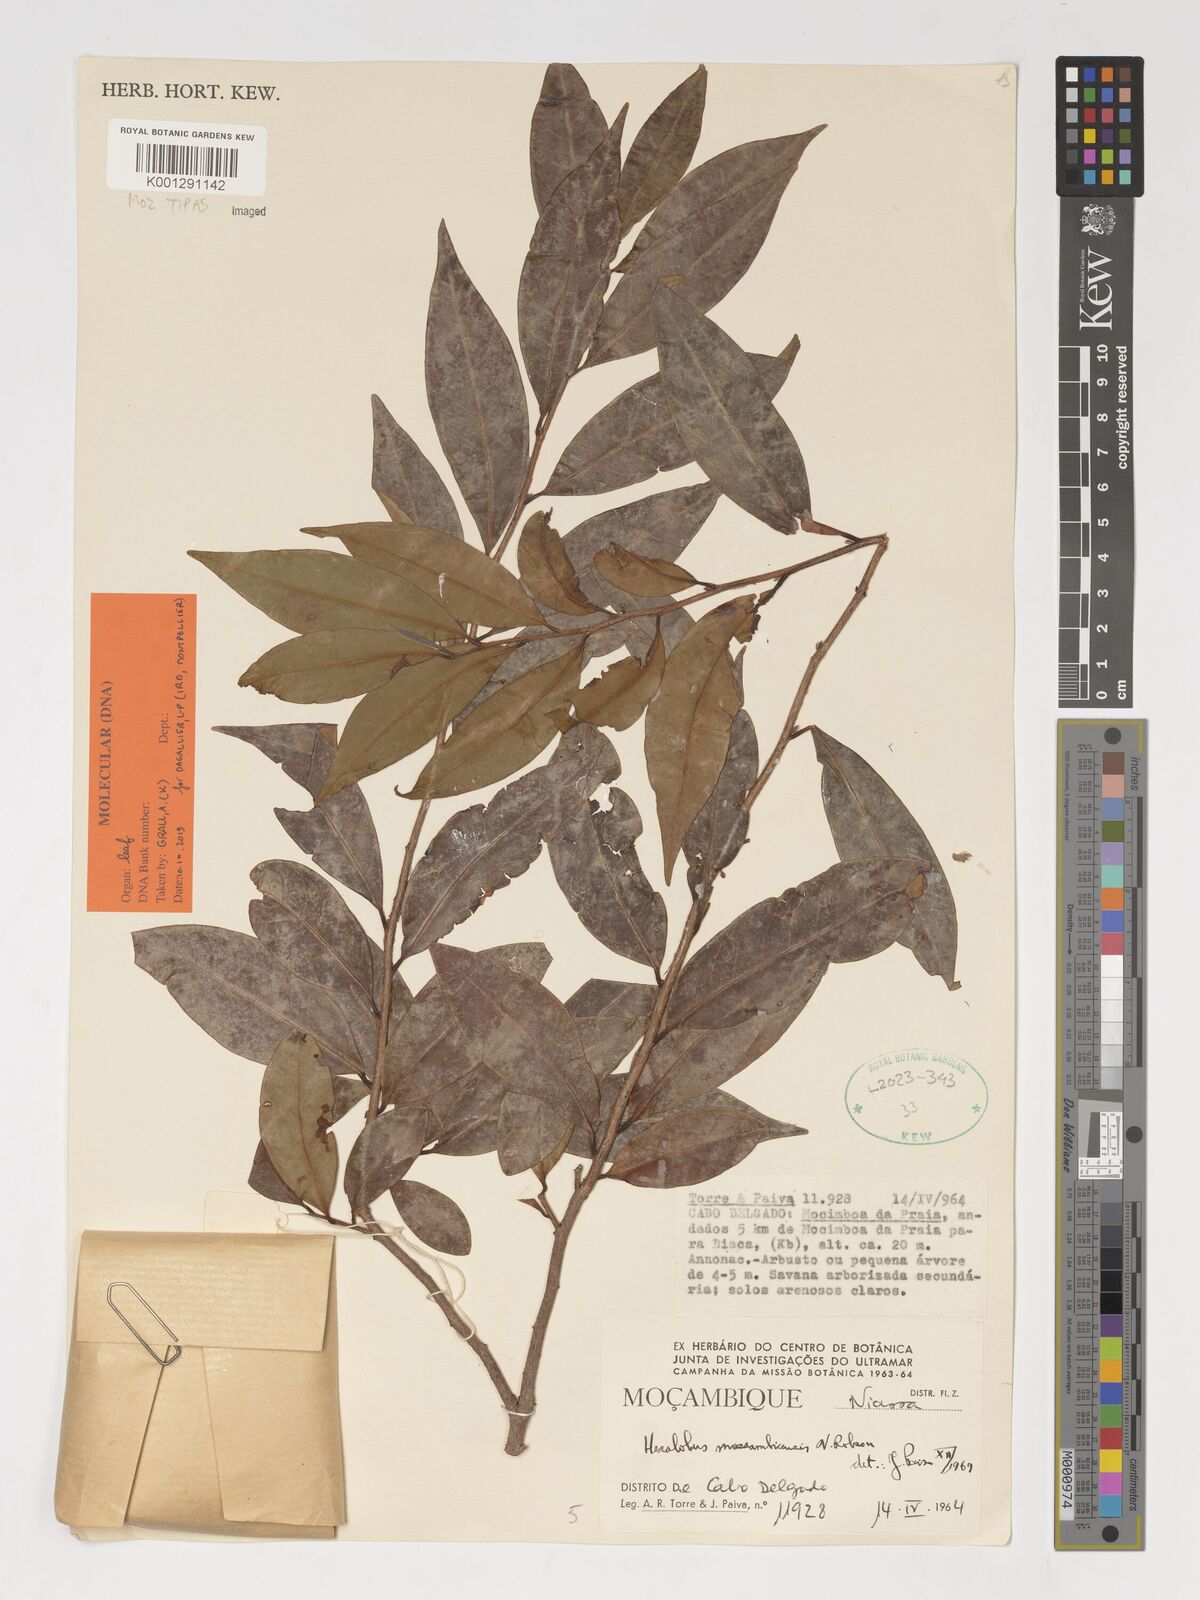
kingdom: Plantae
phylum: Tracheophyta
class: Magnoliopsida
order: Magnoliales
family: Annonaceae
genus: Hexalobus
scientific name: Hexalobus mossambicensis
